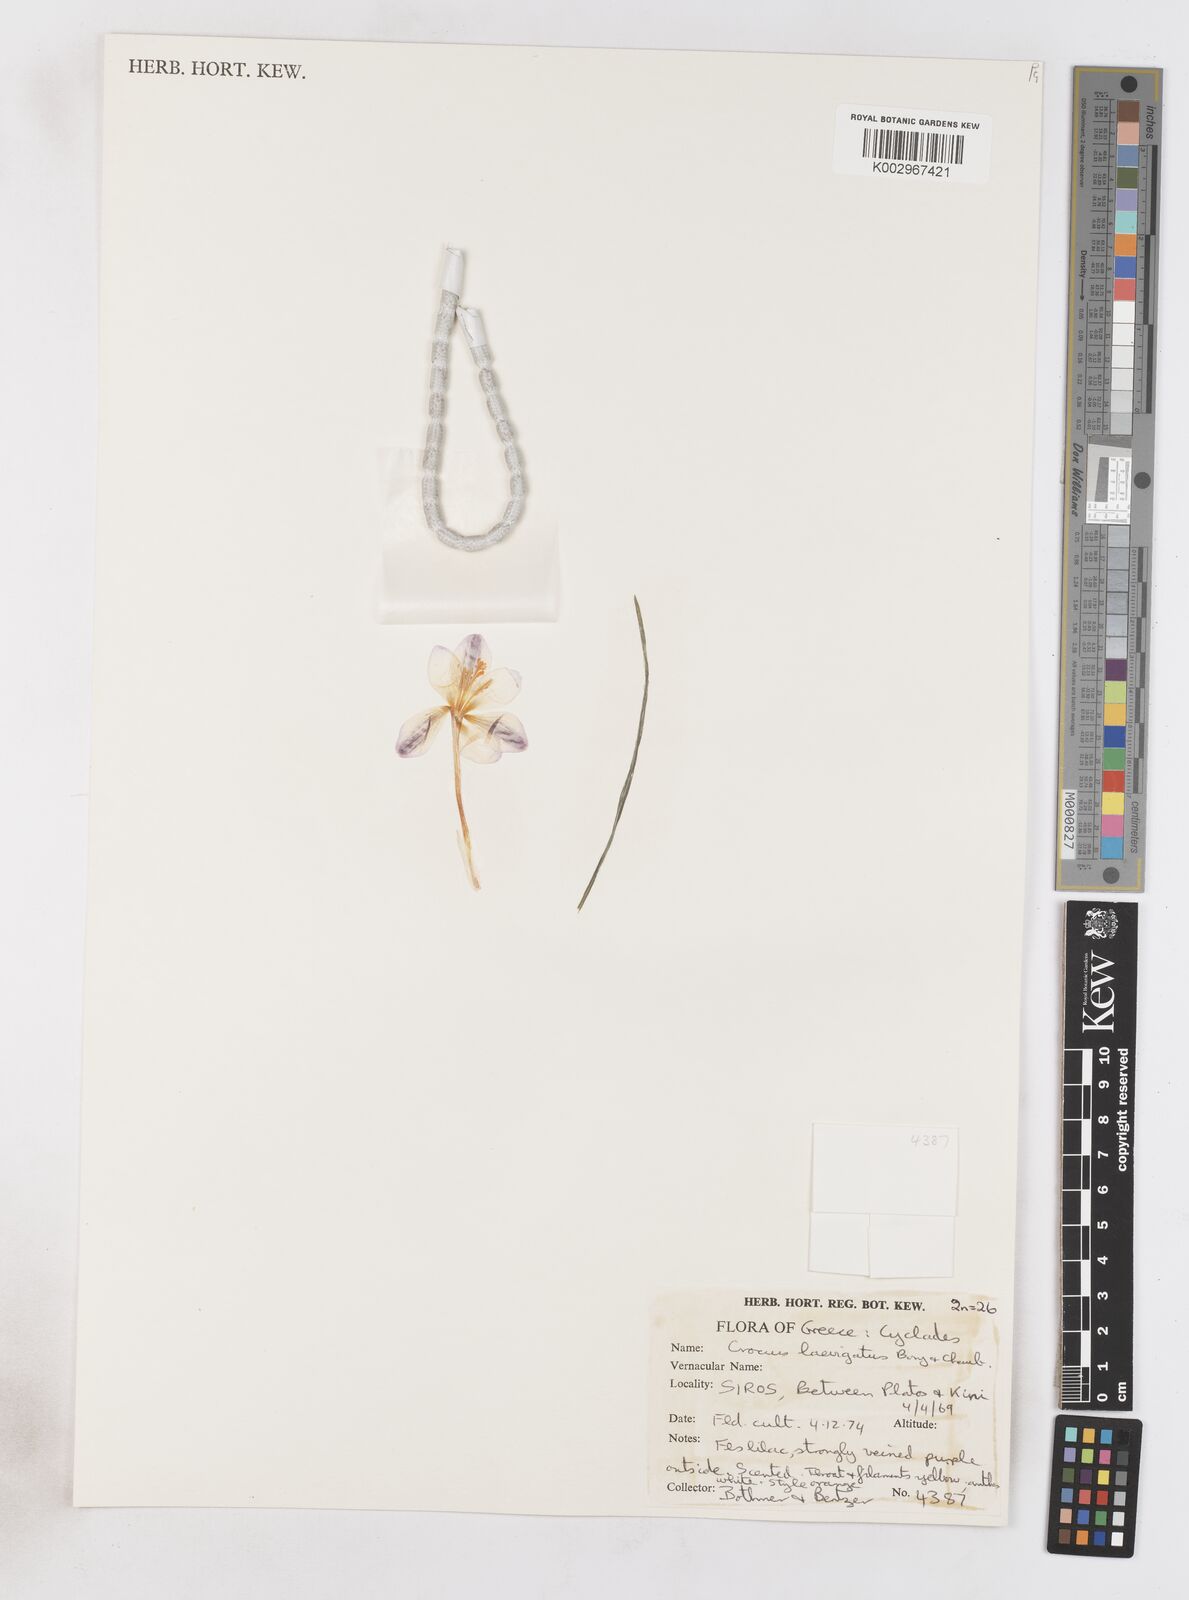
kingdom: Plantae
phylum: Tracheophyta
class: Liliopsida
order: Asparagales
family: Iridaceae
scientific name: Iridaceae
